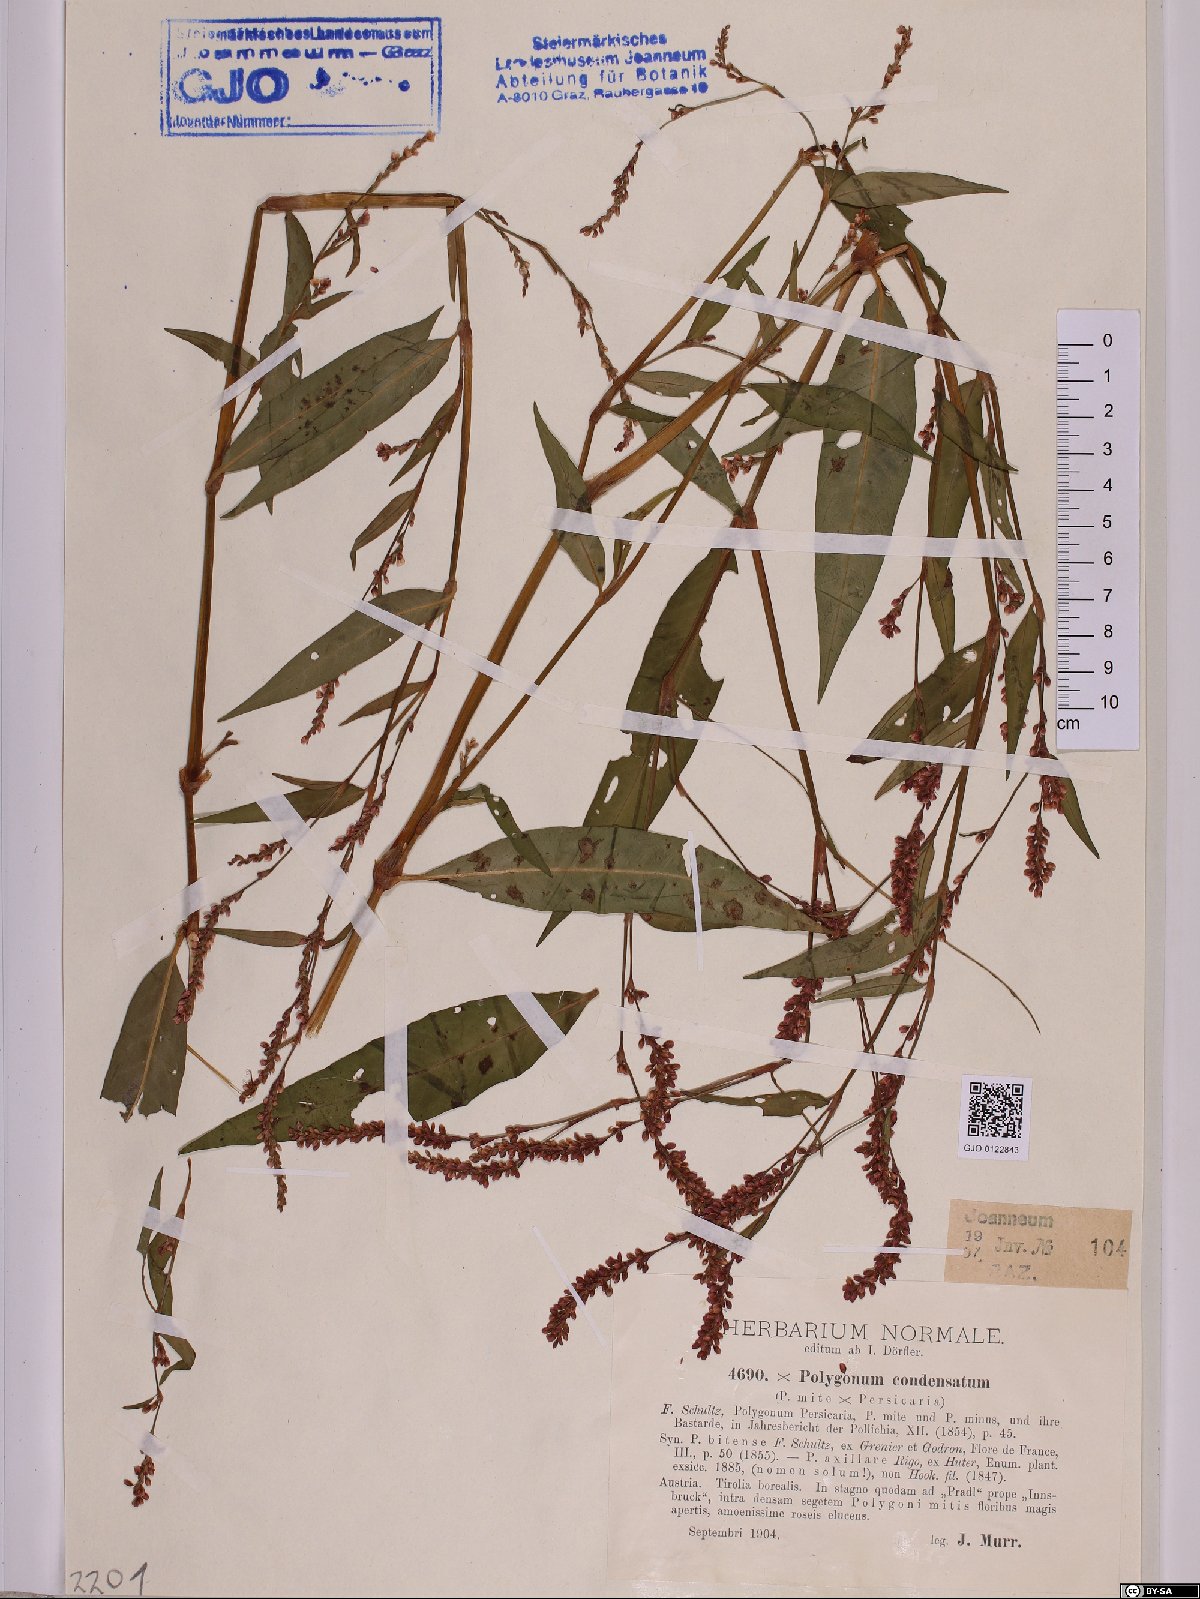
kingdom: Plantae
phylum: Tracheophyta
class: Magnoliopsida
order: Caryophyllales
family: Polygonaceae
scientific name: Polygonaceae
